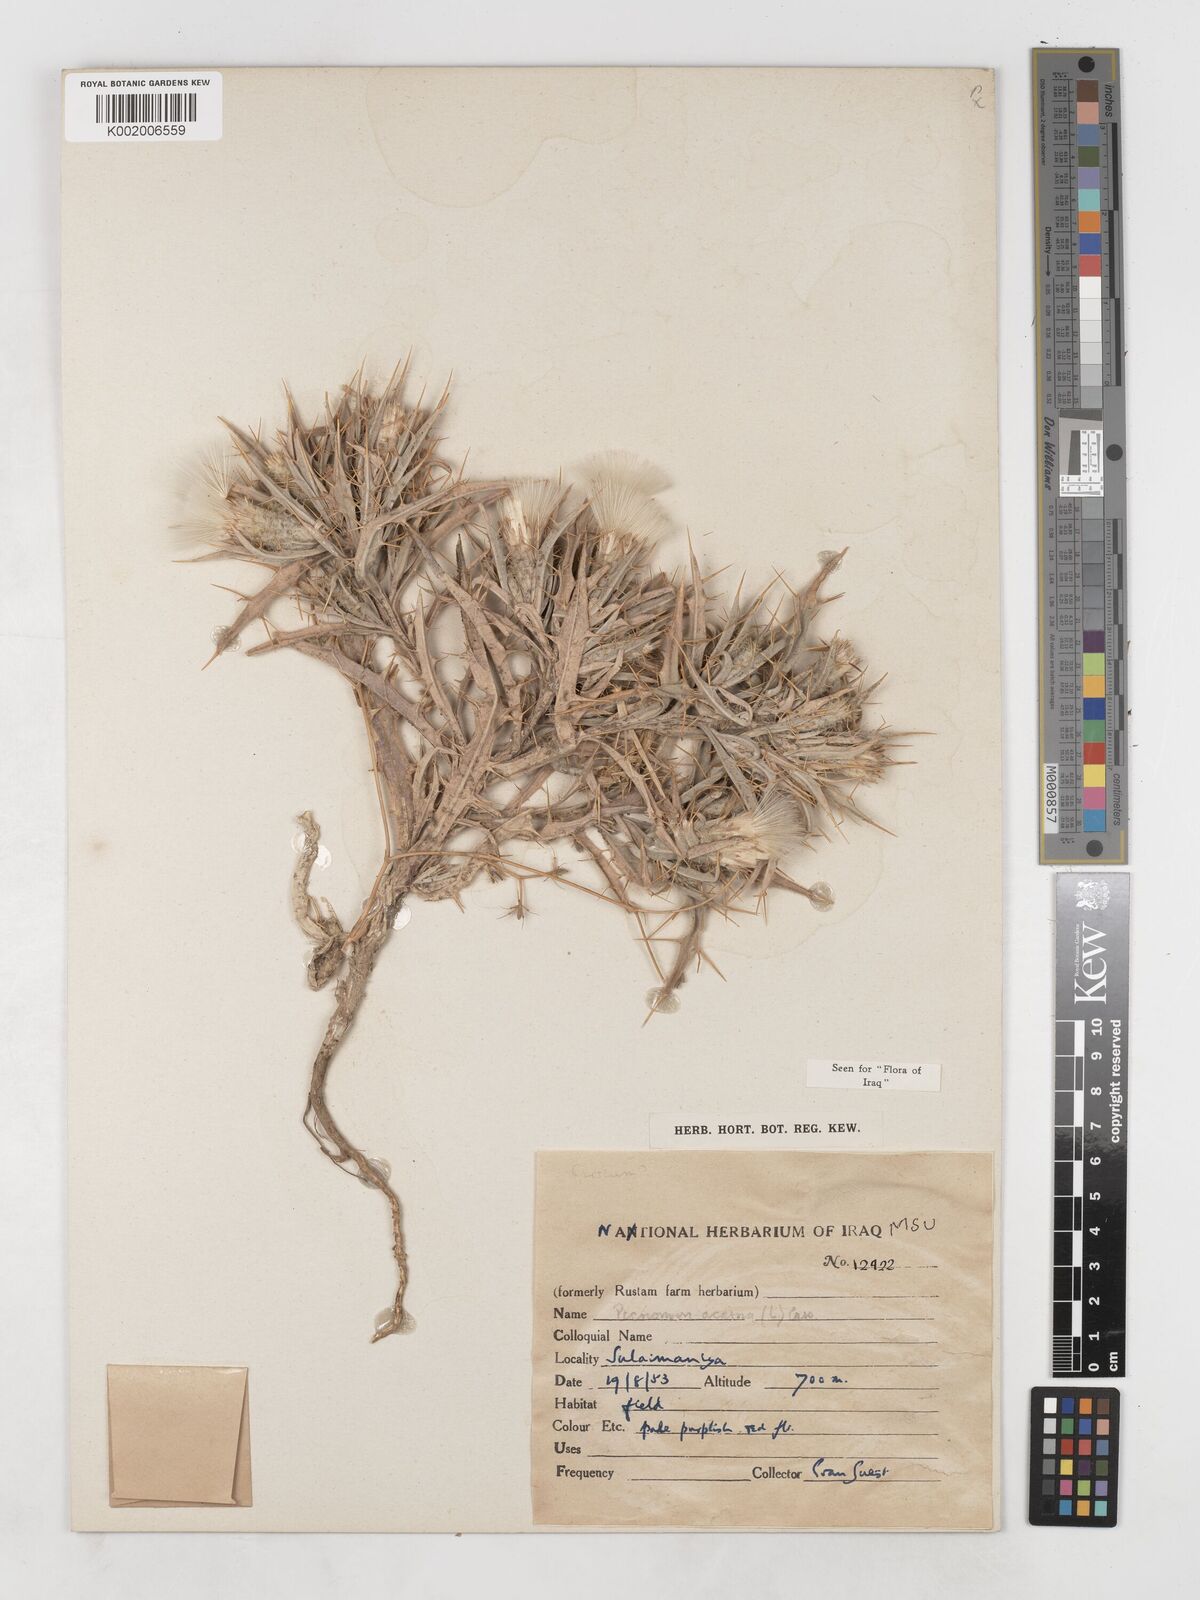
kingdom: Plantae
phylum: Tracheophyta
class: Magnoliopsida
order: Asterales
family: Asteraceae
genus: Picnomon
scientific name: Picnomon acarna
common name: Soldier thistle
